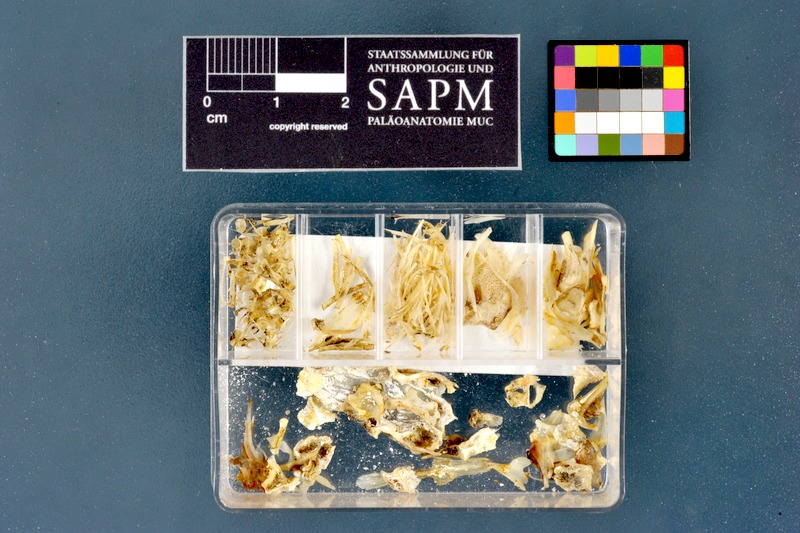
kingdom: Animalia
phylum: Chordata
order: Cypriniformes
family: Cyprinidae
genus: Barbus
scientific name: Barbus meridionalis
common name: Mediterranean barbel
